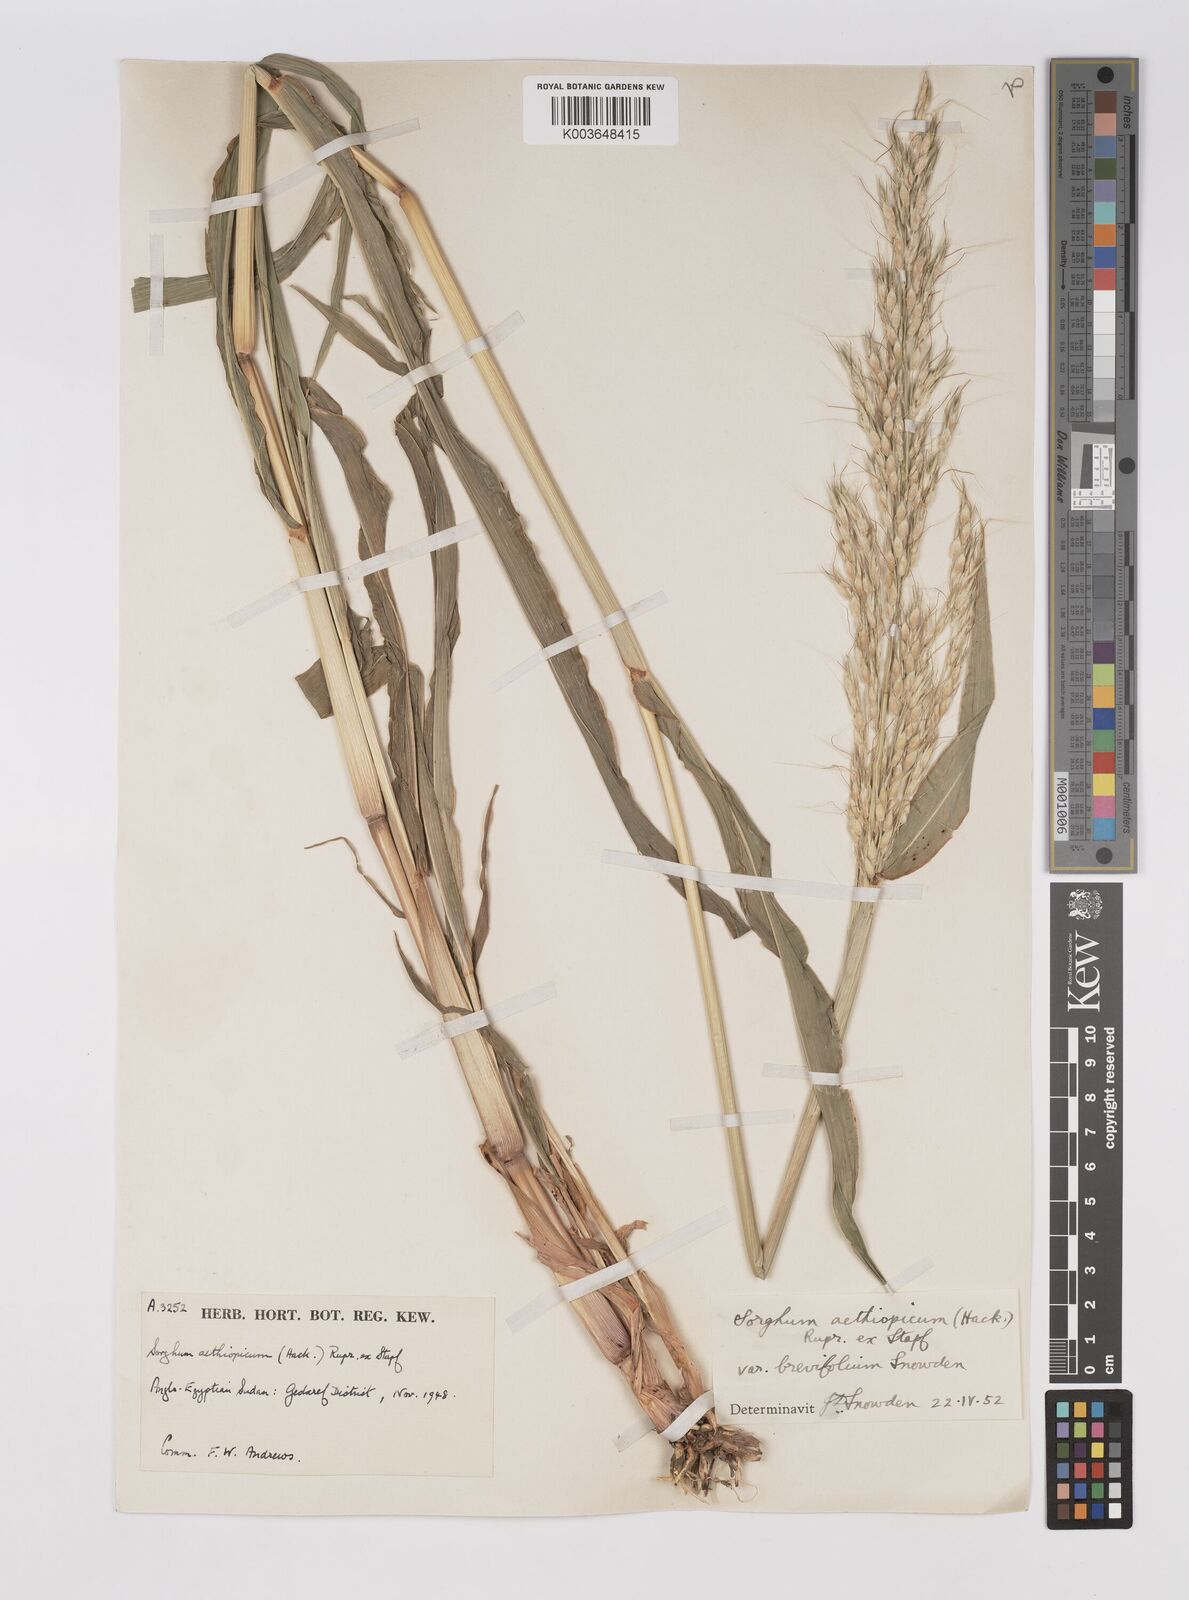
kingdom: Plantae
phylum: Tracheophyta
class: Liliopsida
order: Poales
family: Poaceae
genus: Sorghum
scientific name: Sorghum arundinaceum
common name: Sorghum
